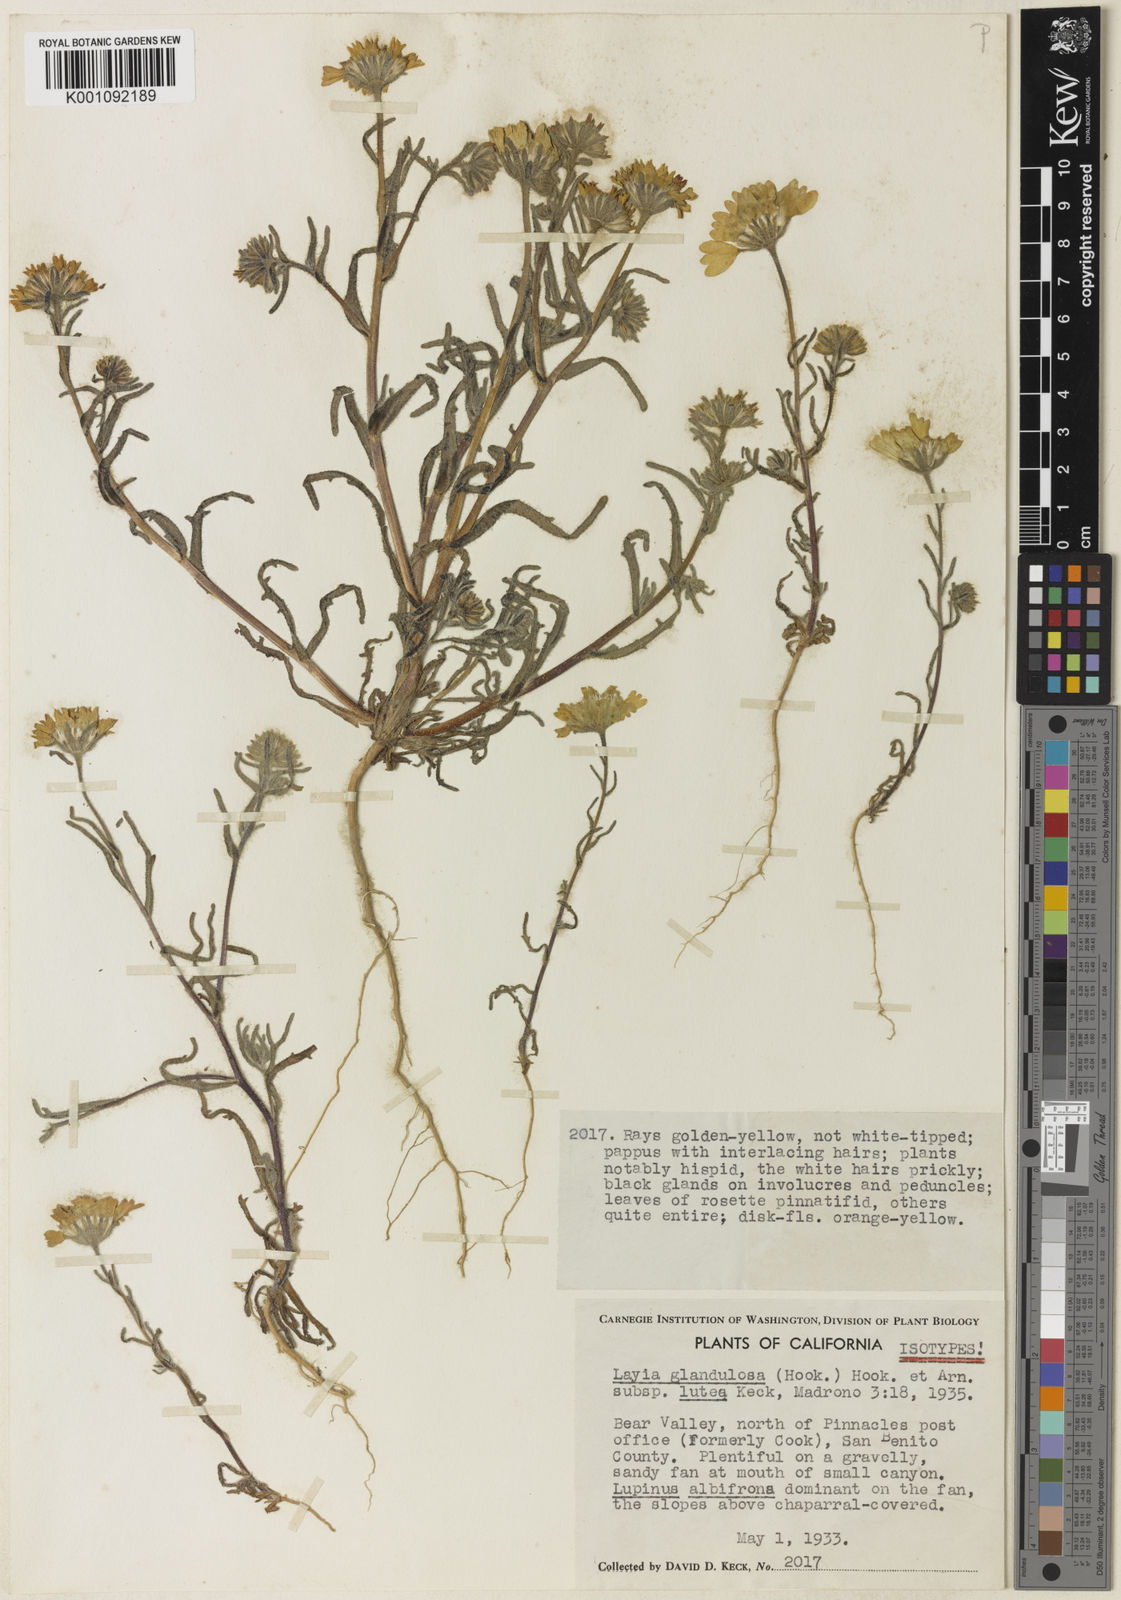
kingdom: Plantae
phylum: Tracheophyta
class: Magnoliopsida
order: Asterales
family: Asteraceae
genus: Layia
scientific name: Layia glandulosa
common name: White layia
